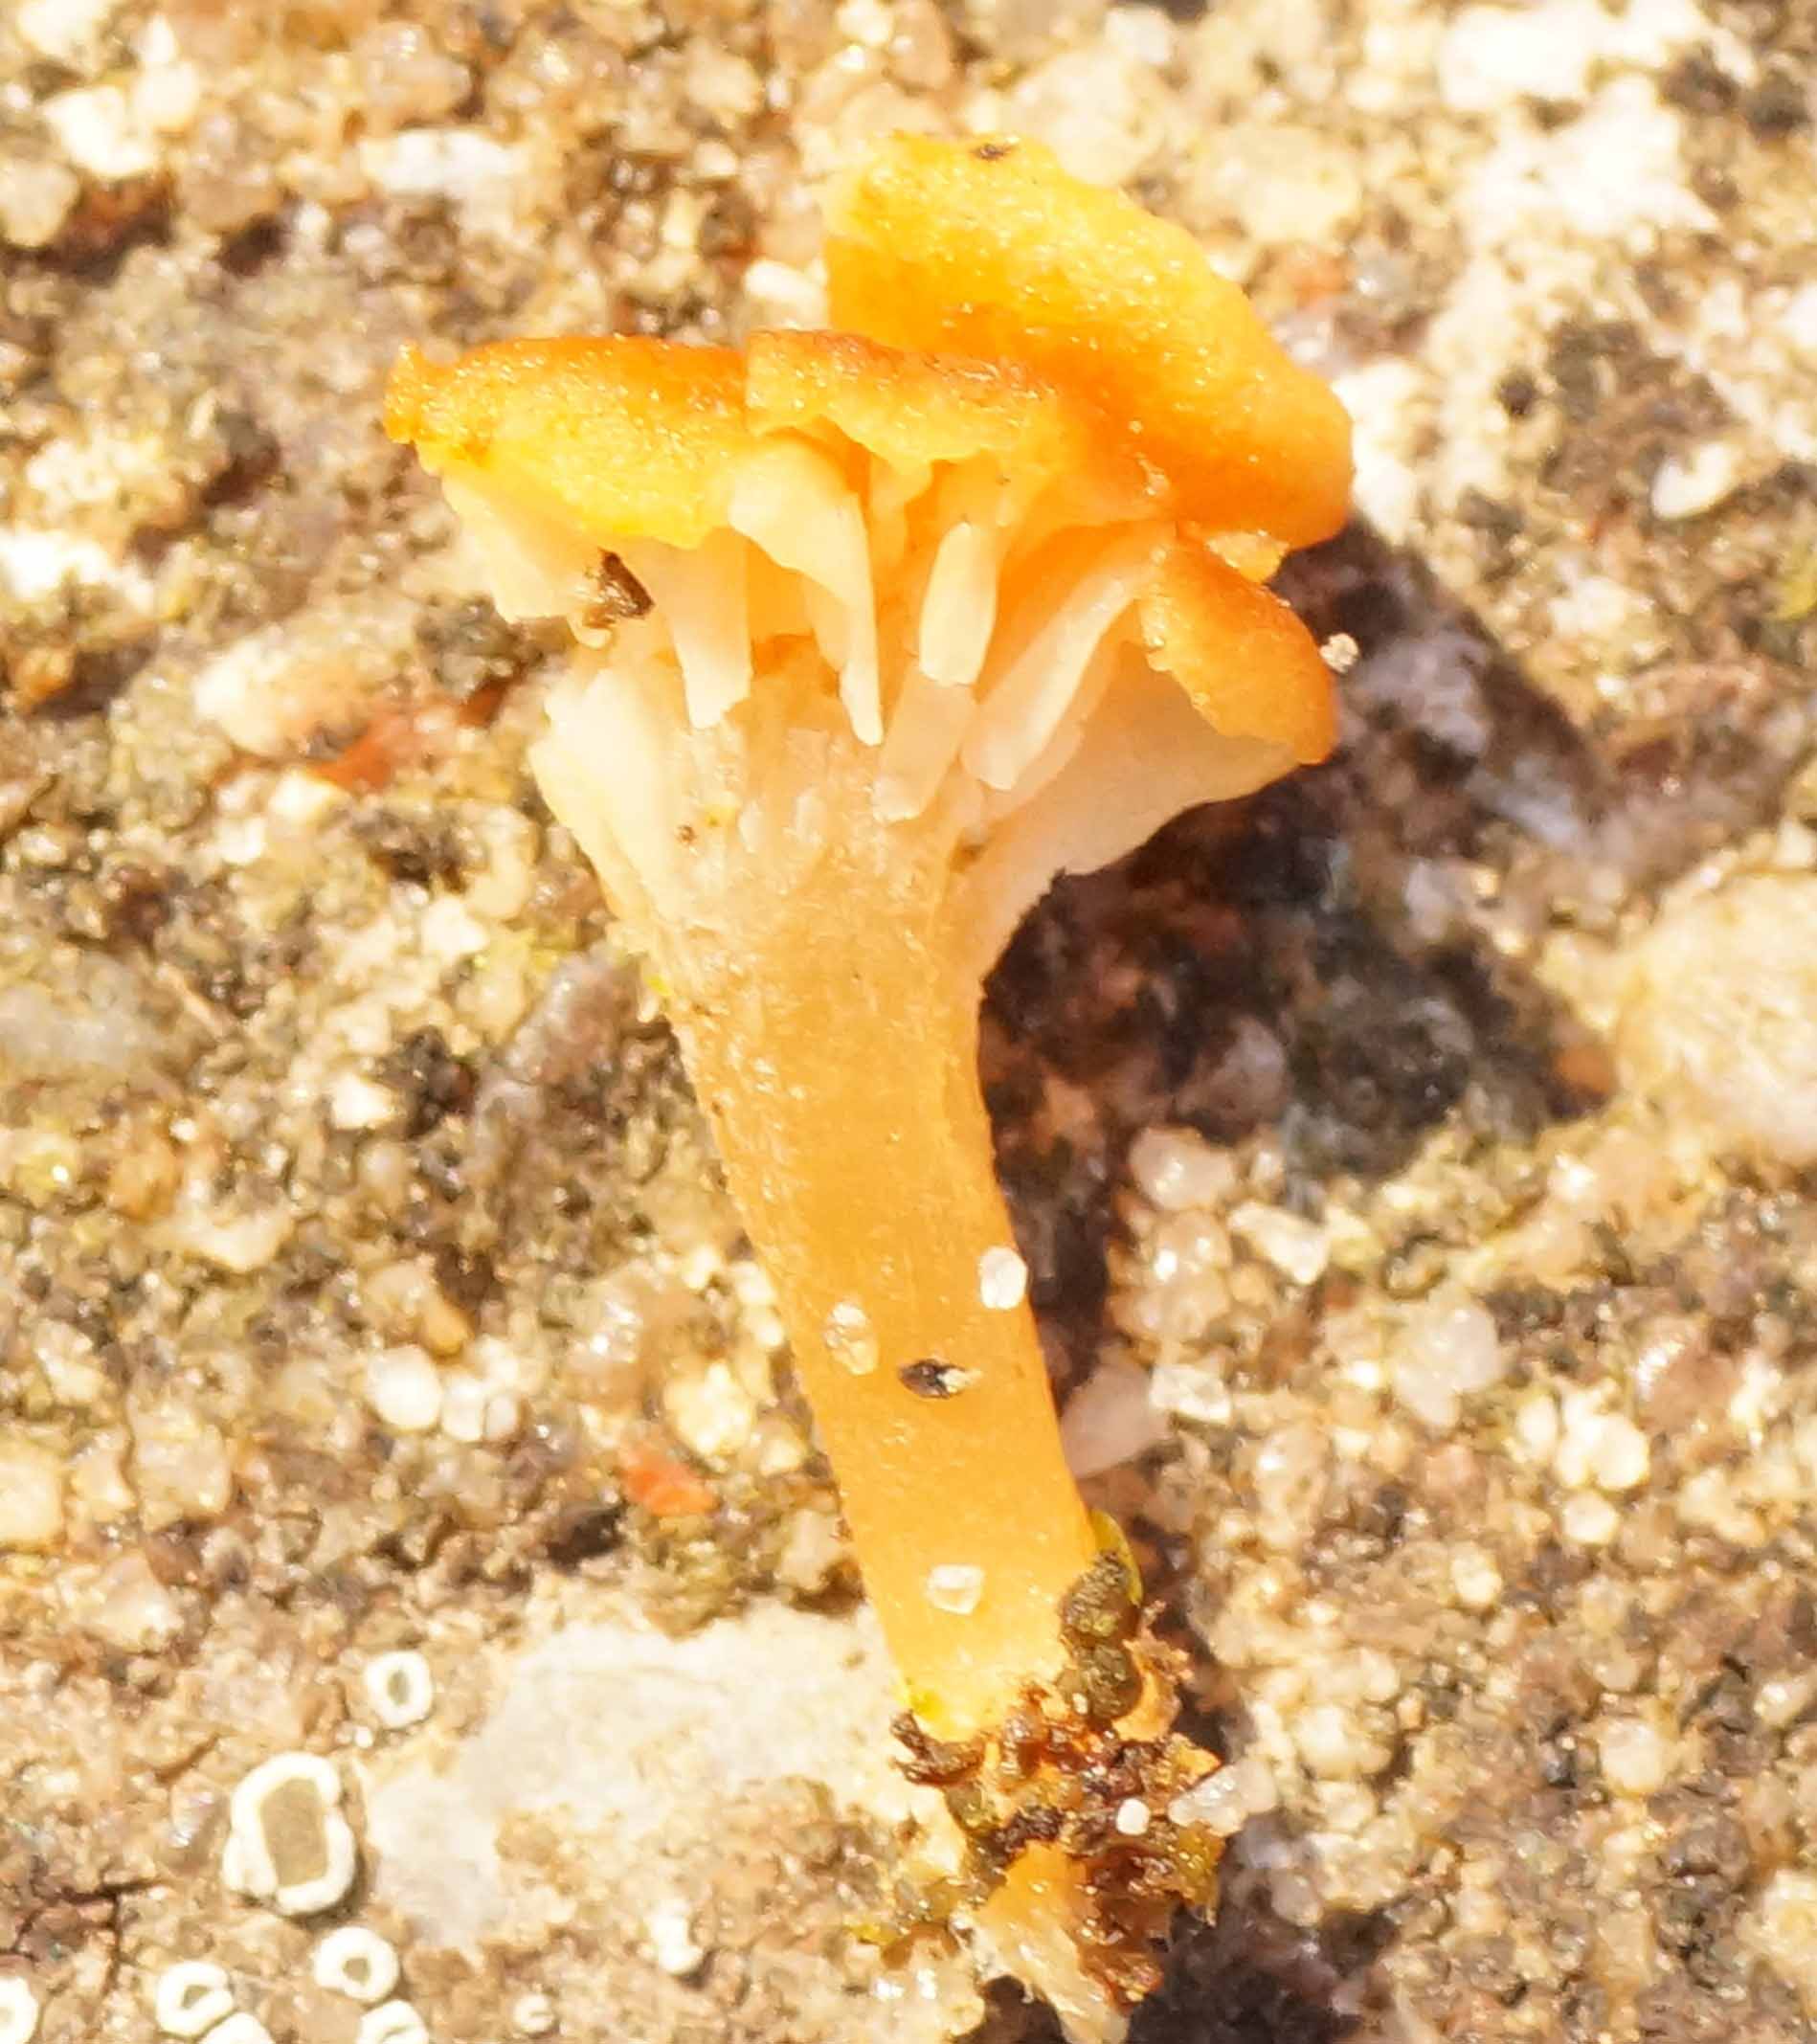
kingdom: Fungi
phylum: Basidiomycota
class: Agaricomycetes
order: Hymenochaetales
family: Rickenellaceae
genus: Loreleia
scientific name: Loreleia marchantiae
